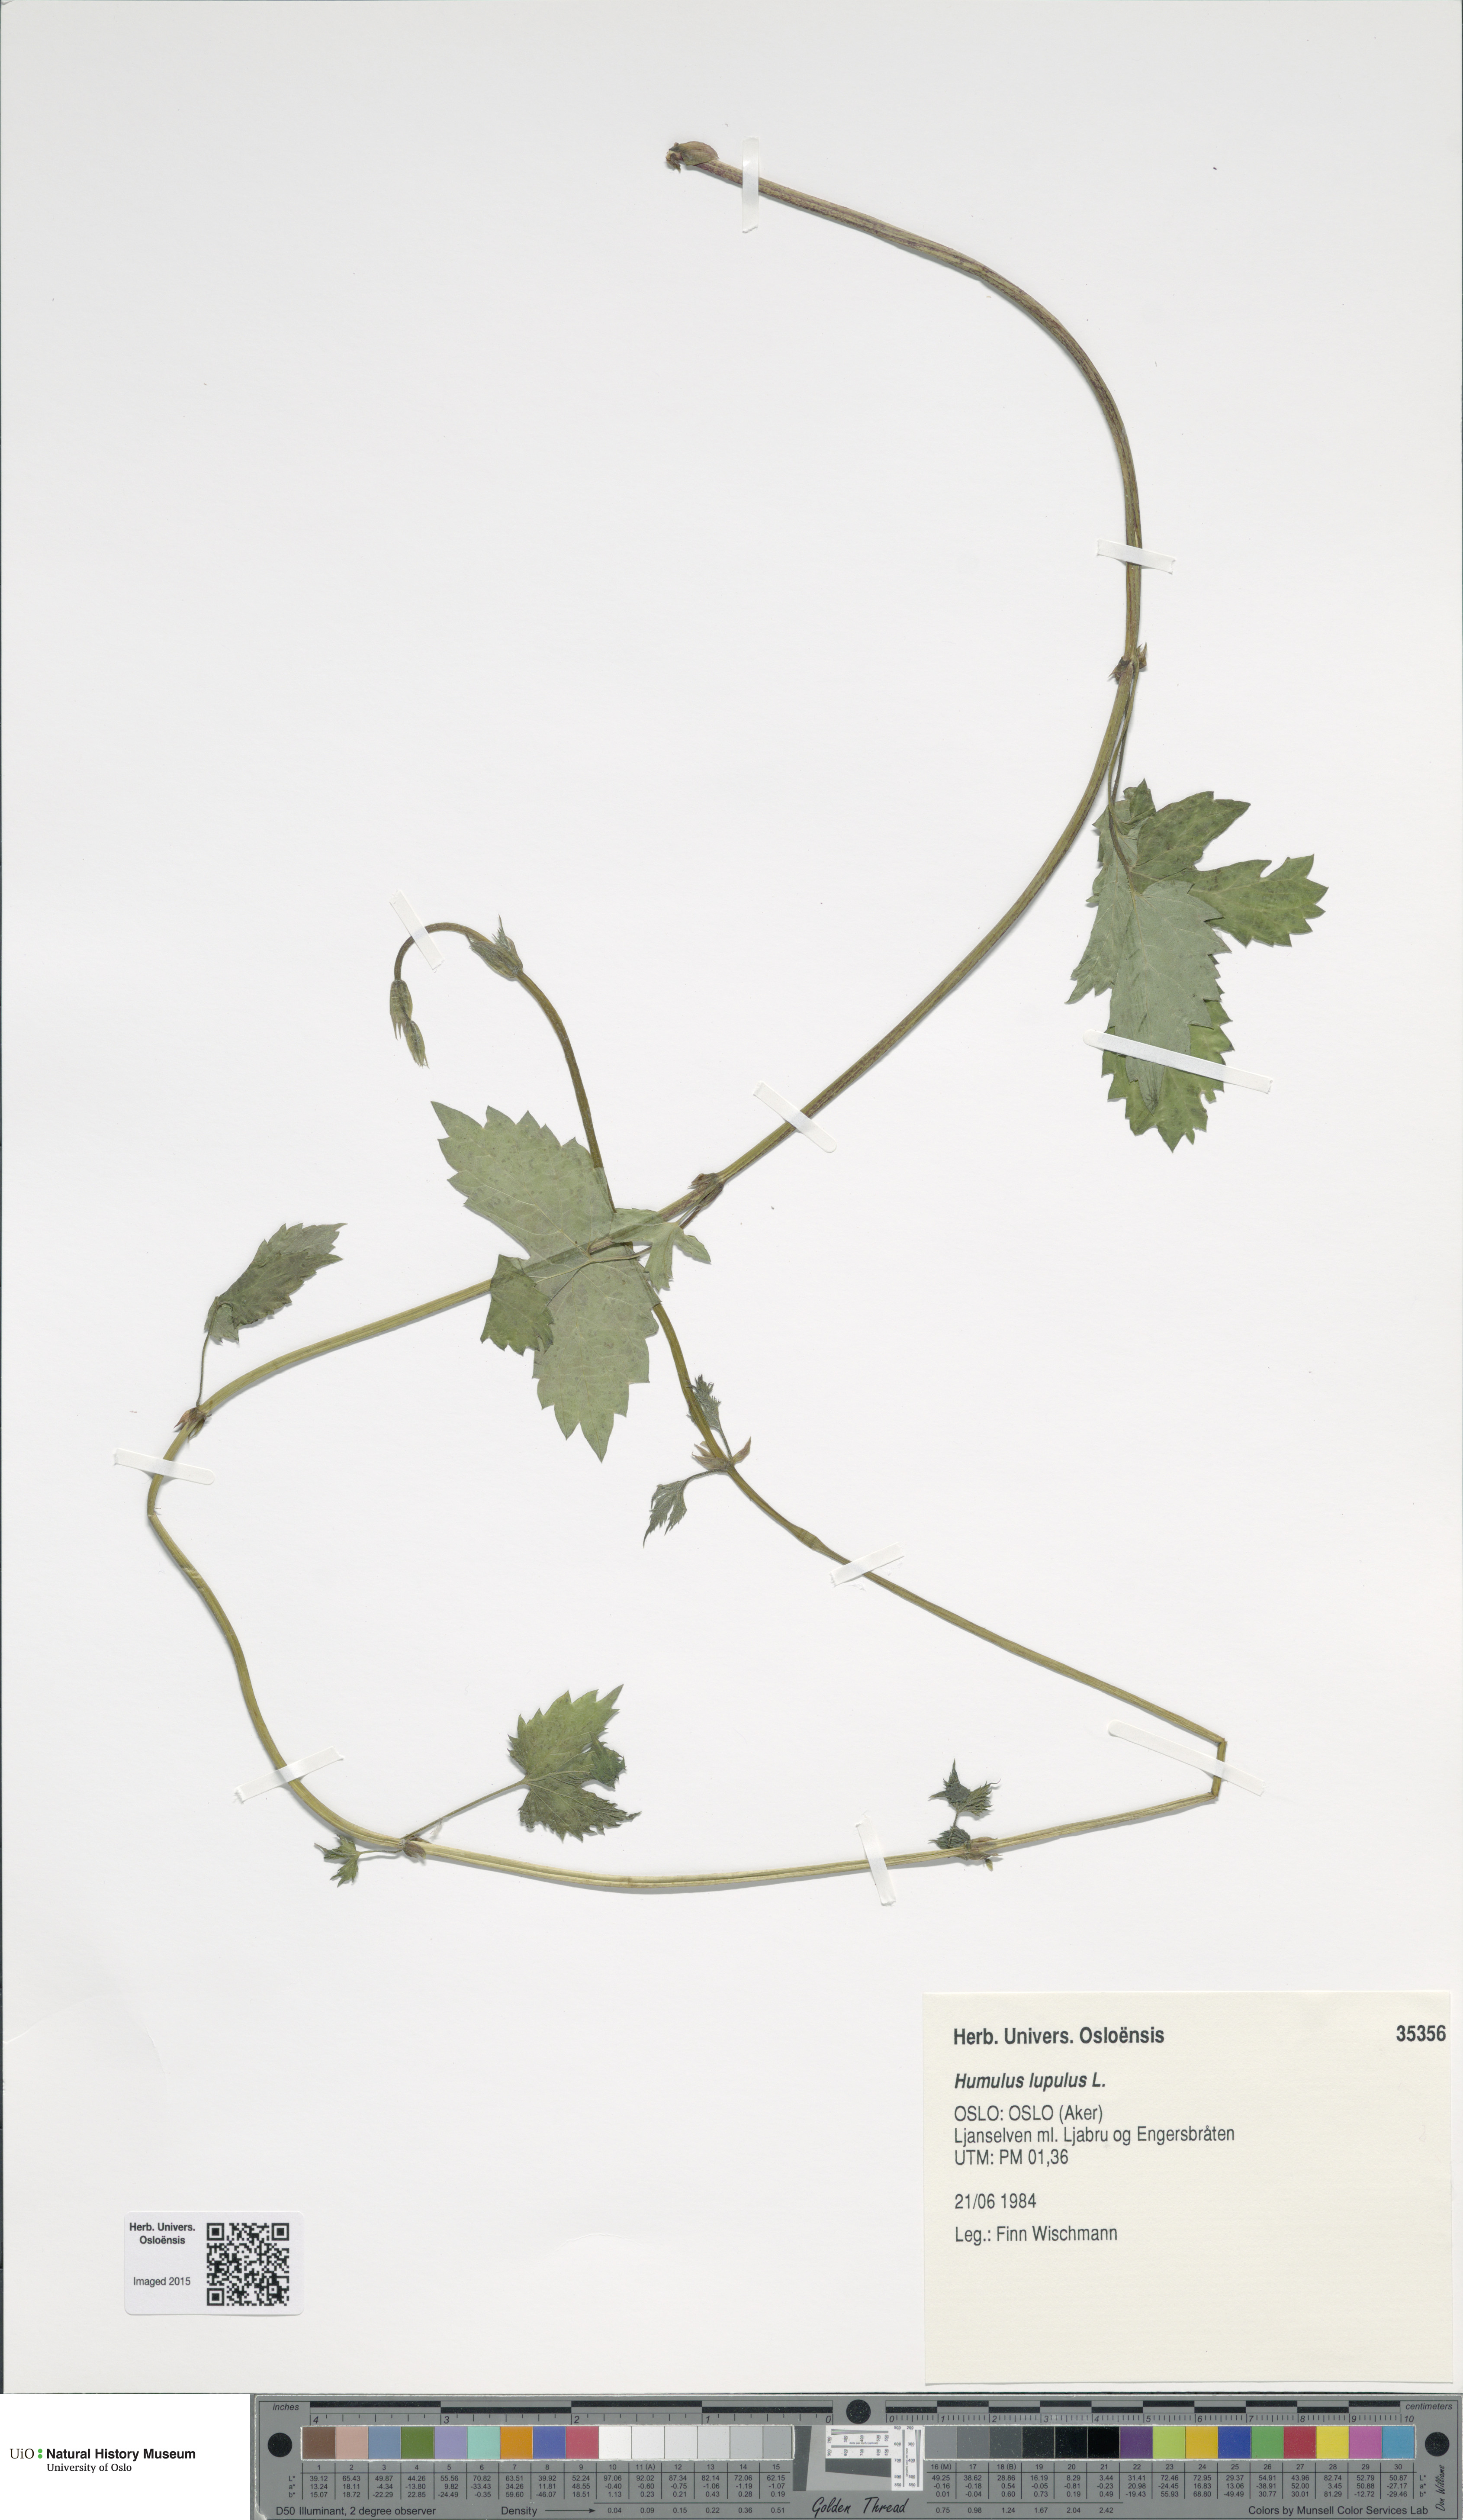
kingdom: Plantae
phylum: Tracheophyta
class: Magnoliopsida
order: Rosales
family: Cannabaceae
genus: Humulus
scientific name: Humulus lupulus
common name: Hop
